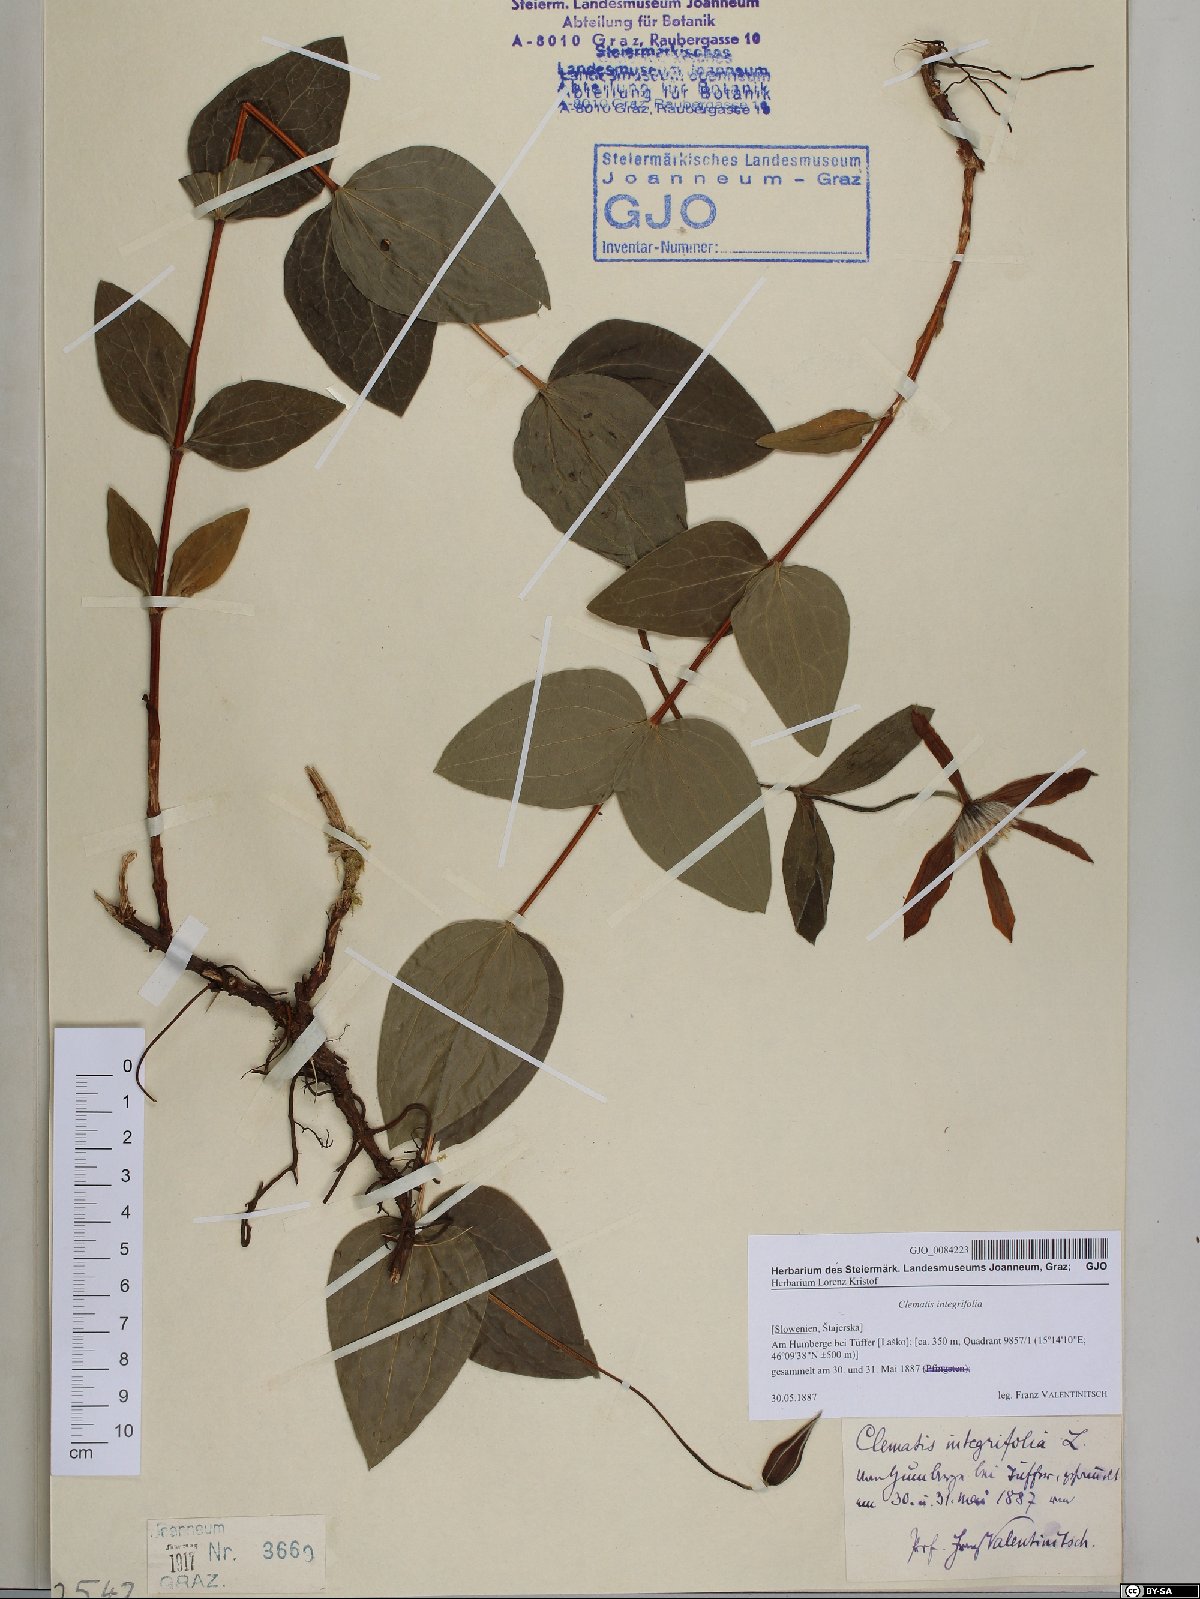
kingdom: Plantae
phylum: Tracheophyta
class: Magnoliopsida
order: Ranunculales
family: Ranunculaceae
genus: Clematis
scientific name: Clematis integrifolia
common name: Solitary clematis
